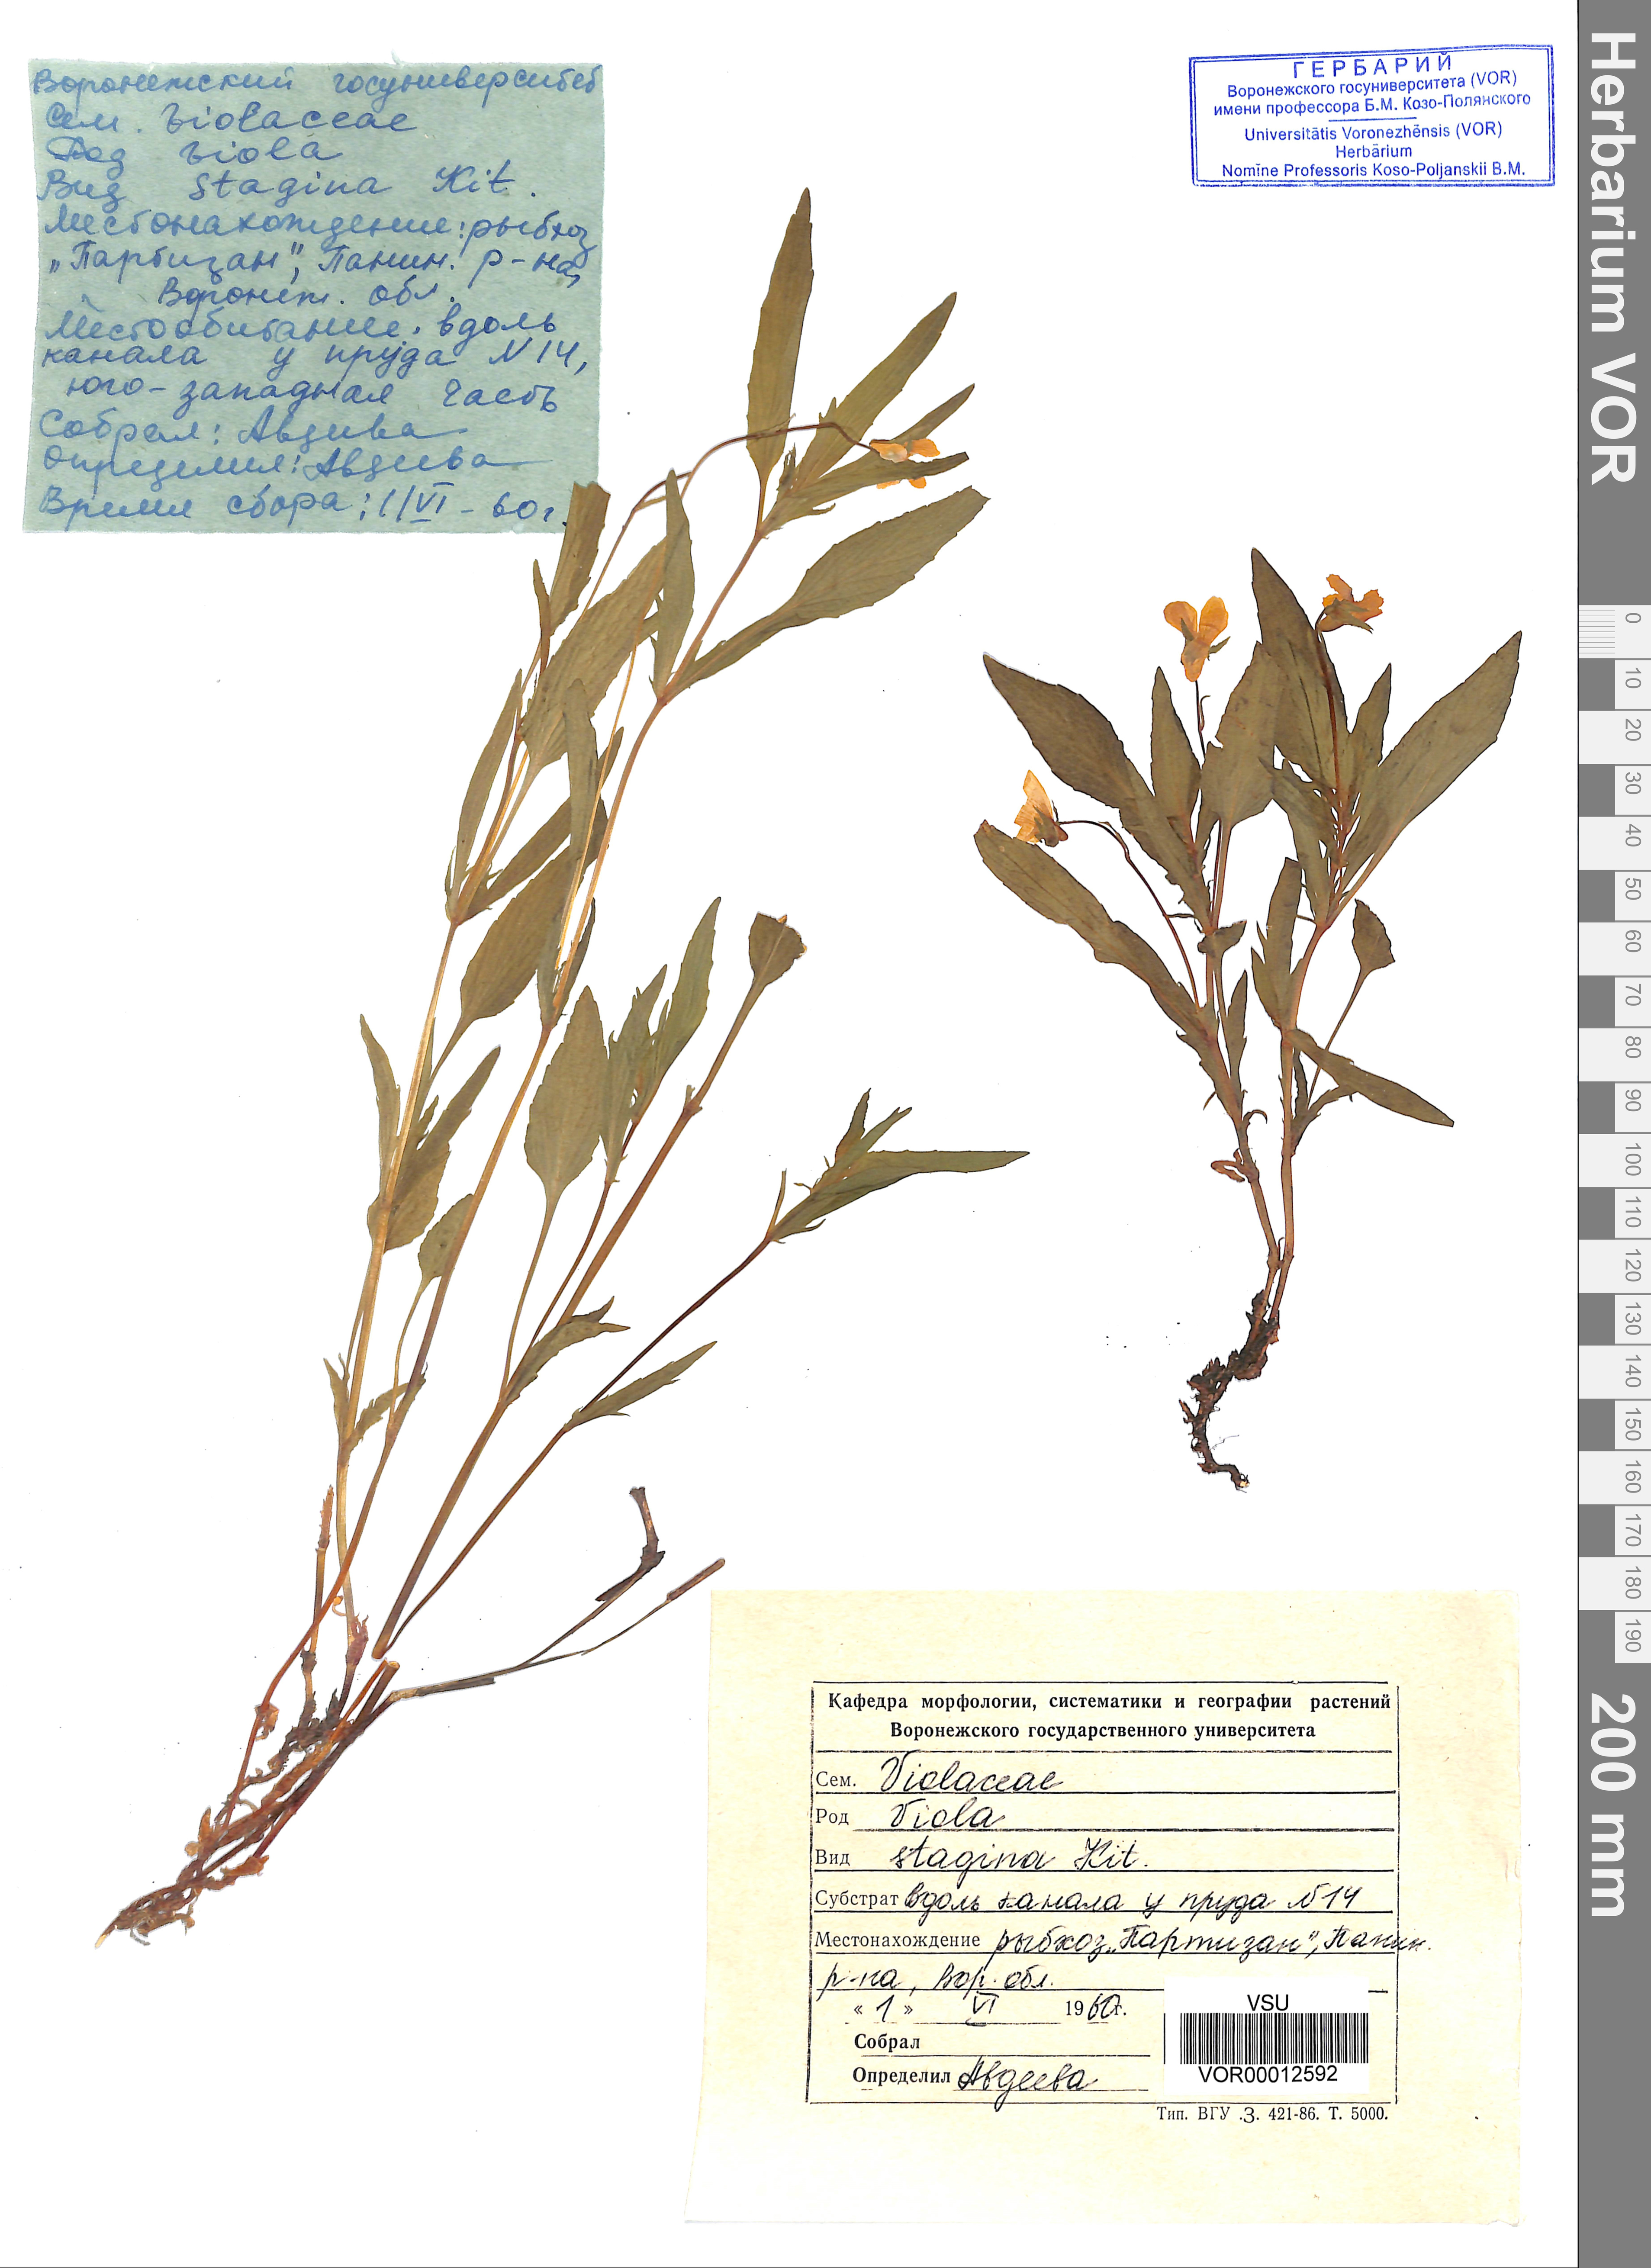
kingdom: Plantae
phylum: Tracheophyta
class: Magnoliopsida
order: Malpighiales
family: Violaceae
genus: Viola
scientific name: Viola stagnina
